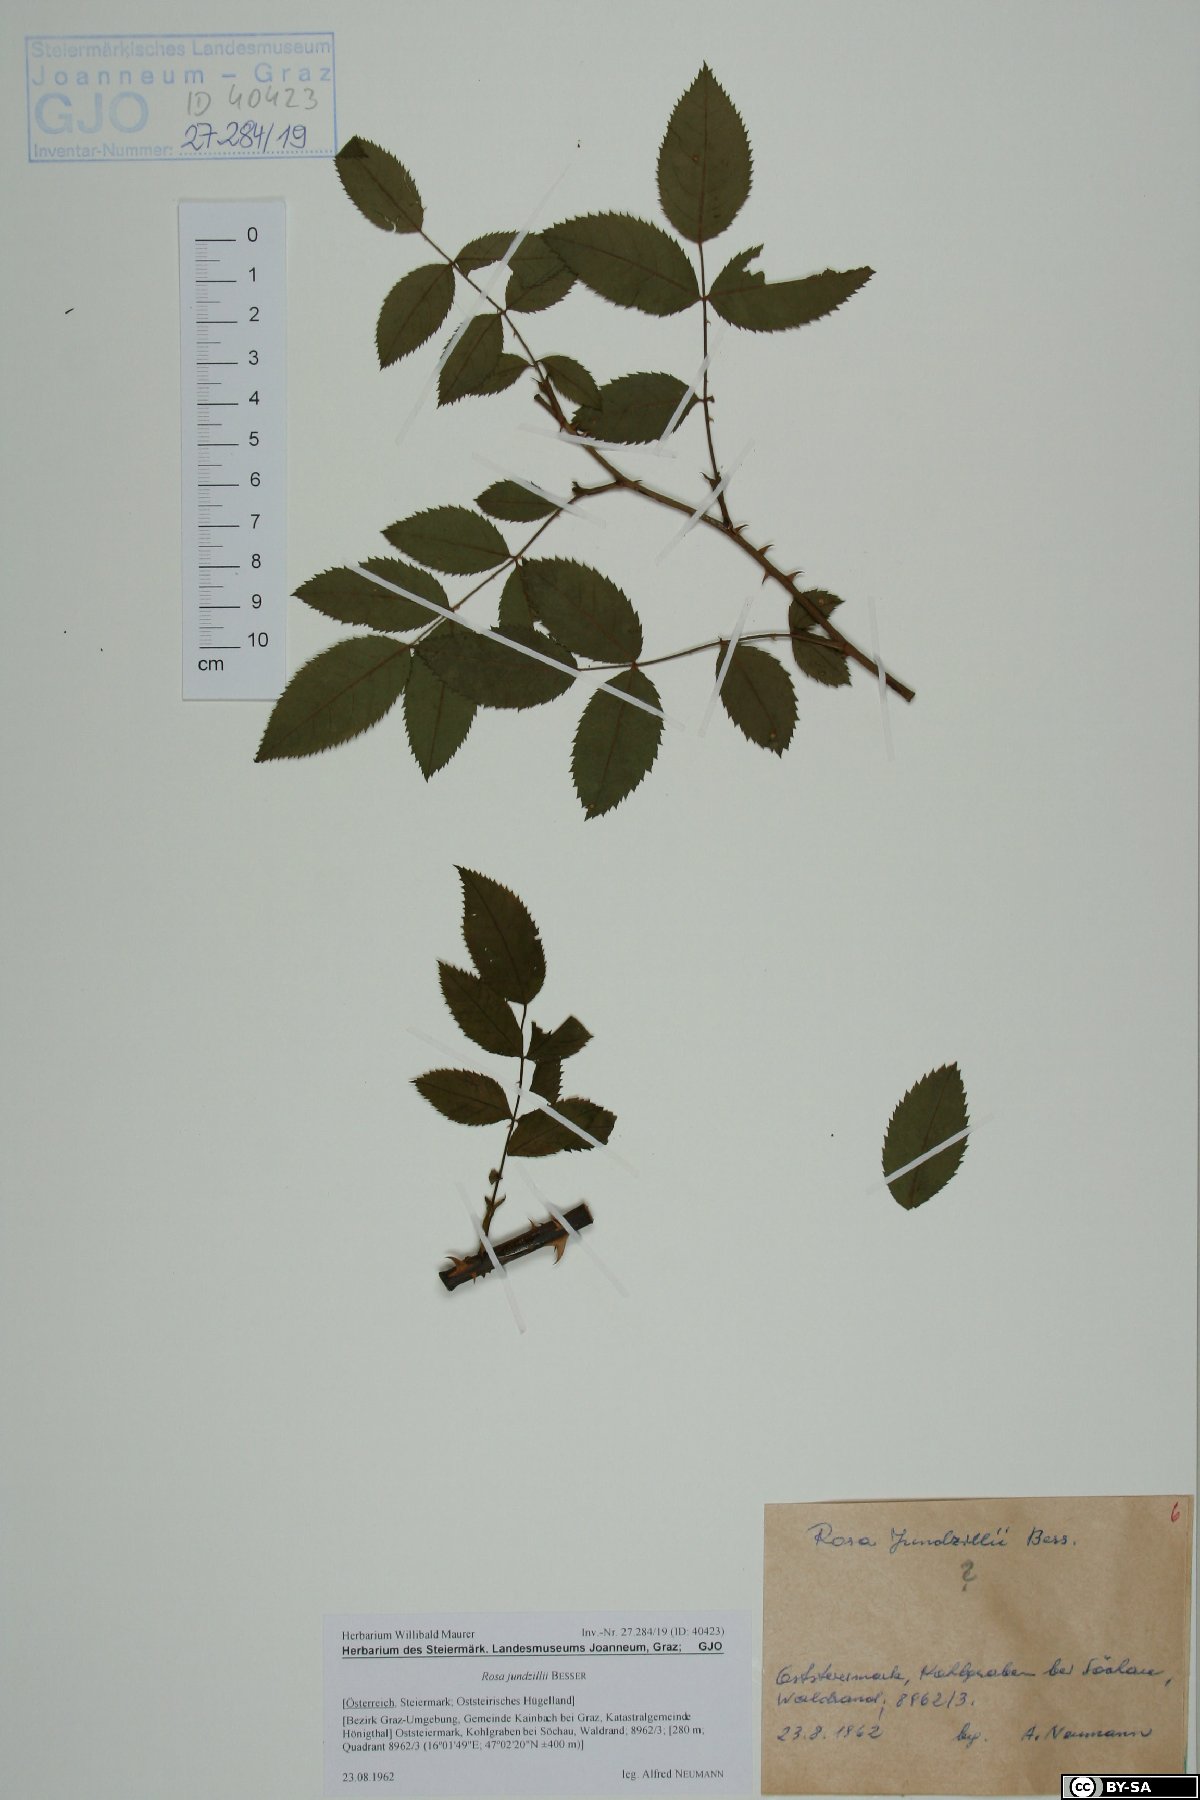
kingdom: Plantae
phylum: Tracheophyta
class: Magnoliopsida
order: Rosales
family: Rosaceae
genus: Rosa
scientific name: Rosa marginata
